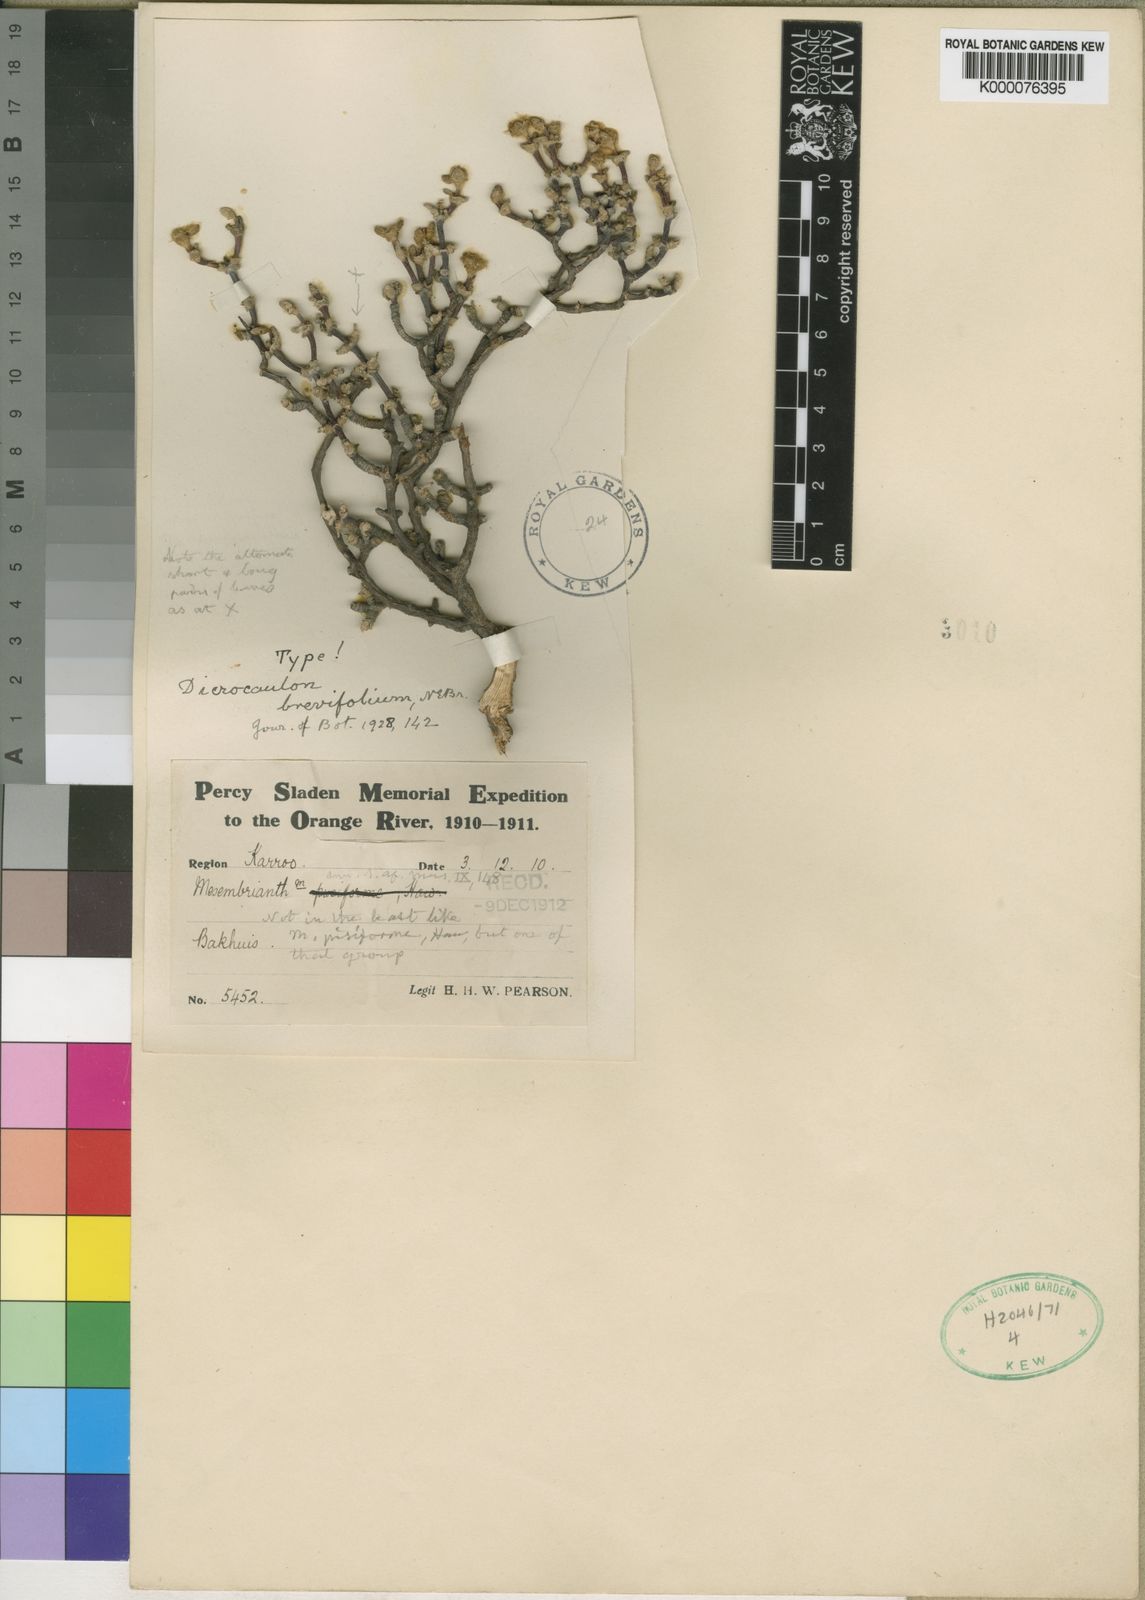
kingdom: Plantae
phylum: Tracheophyta
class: Magnoliopsida
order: Caryophyllales
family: Aizoaceae
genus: Dicrocaulon
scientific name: Dicrocaulon brevifolium
